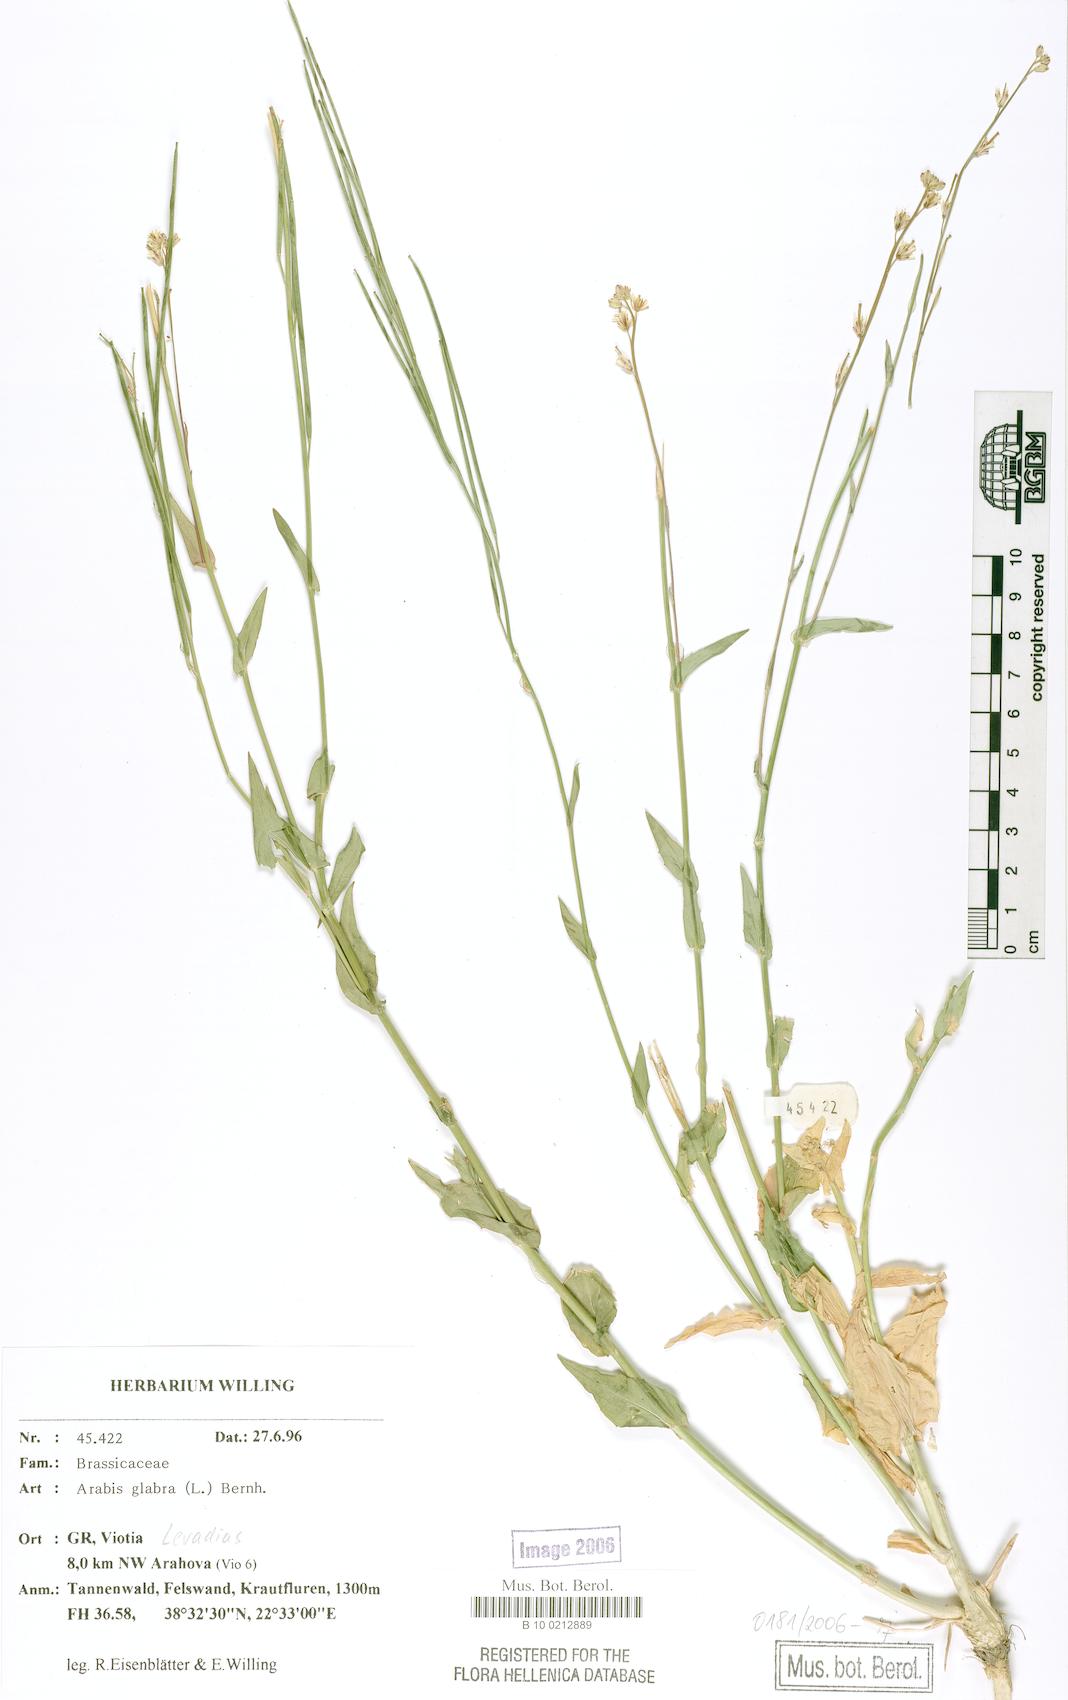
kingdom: Plantae
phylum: Tracheophyta
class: Magnoliopsida
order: Brassicales
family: Brassicaceae
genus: Turritis
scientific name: Turritis glabra
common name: Tower rockcress
